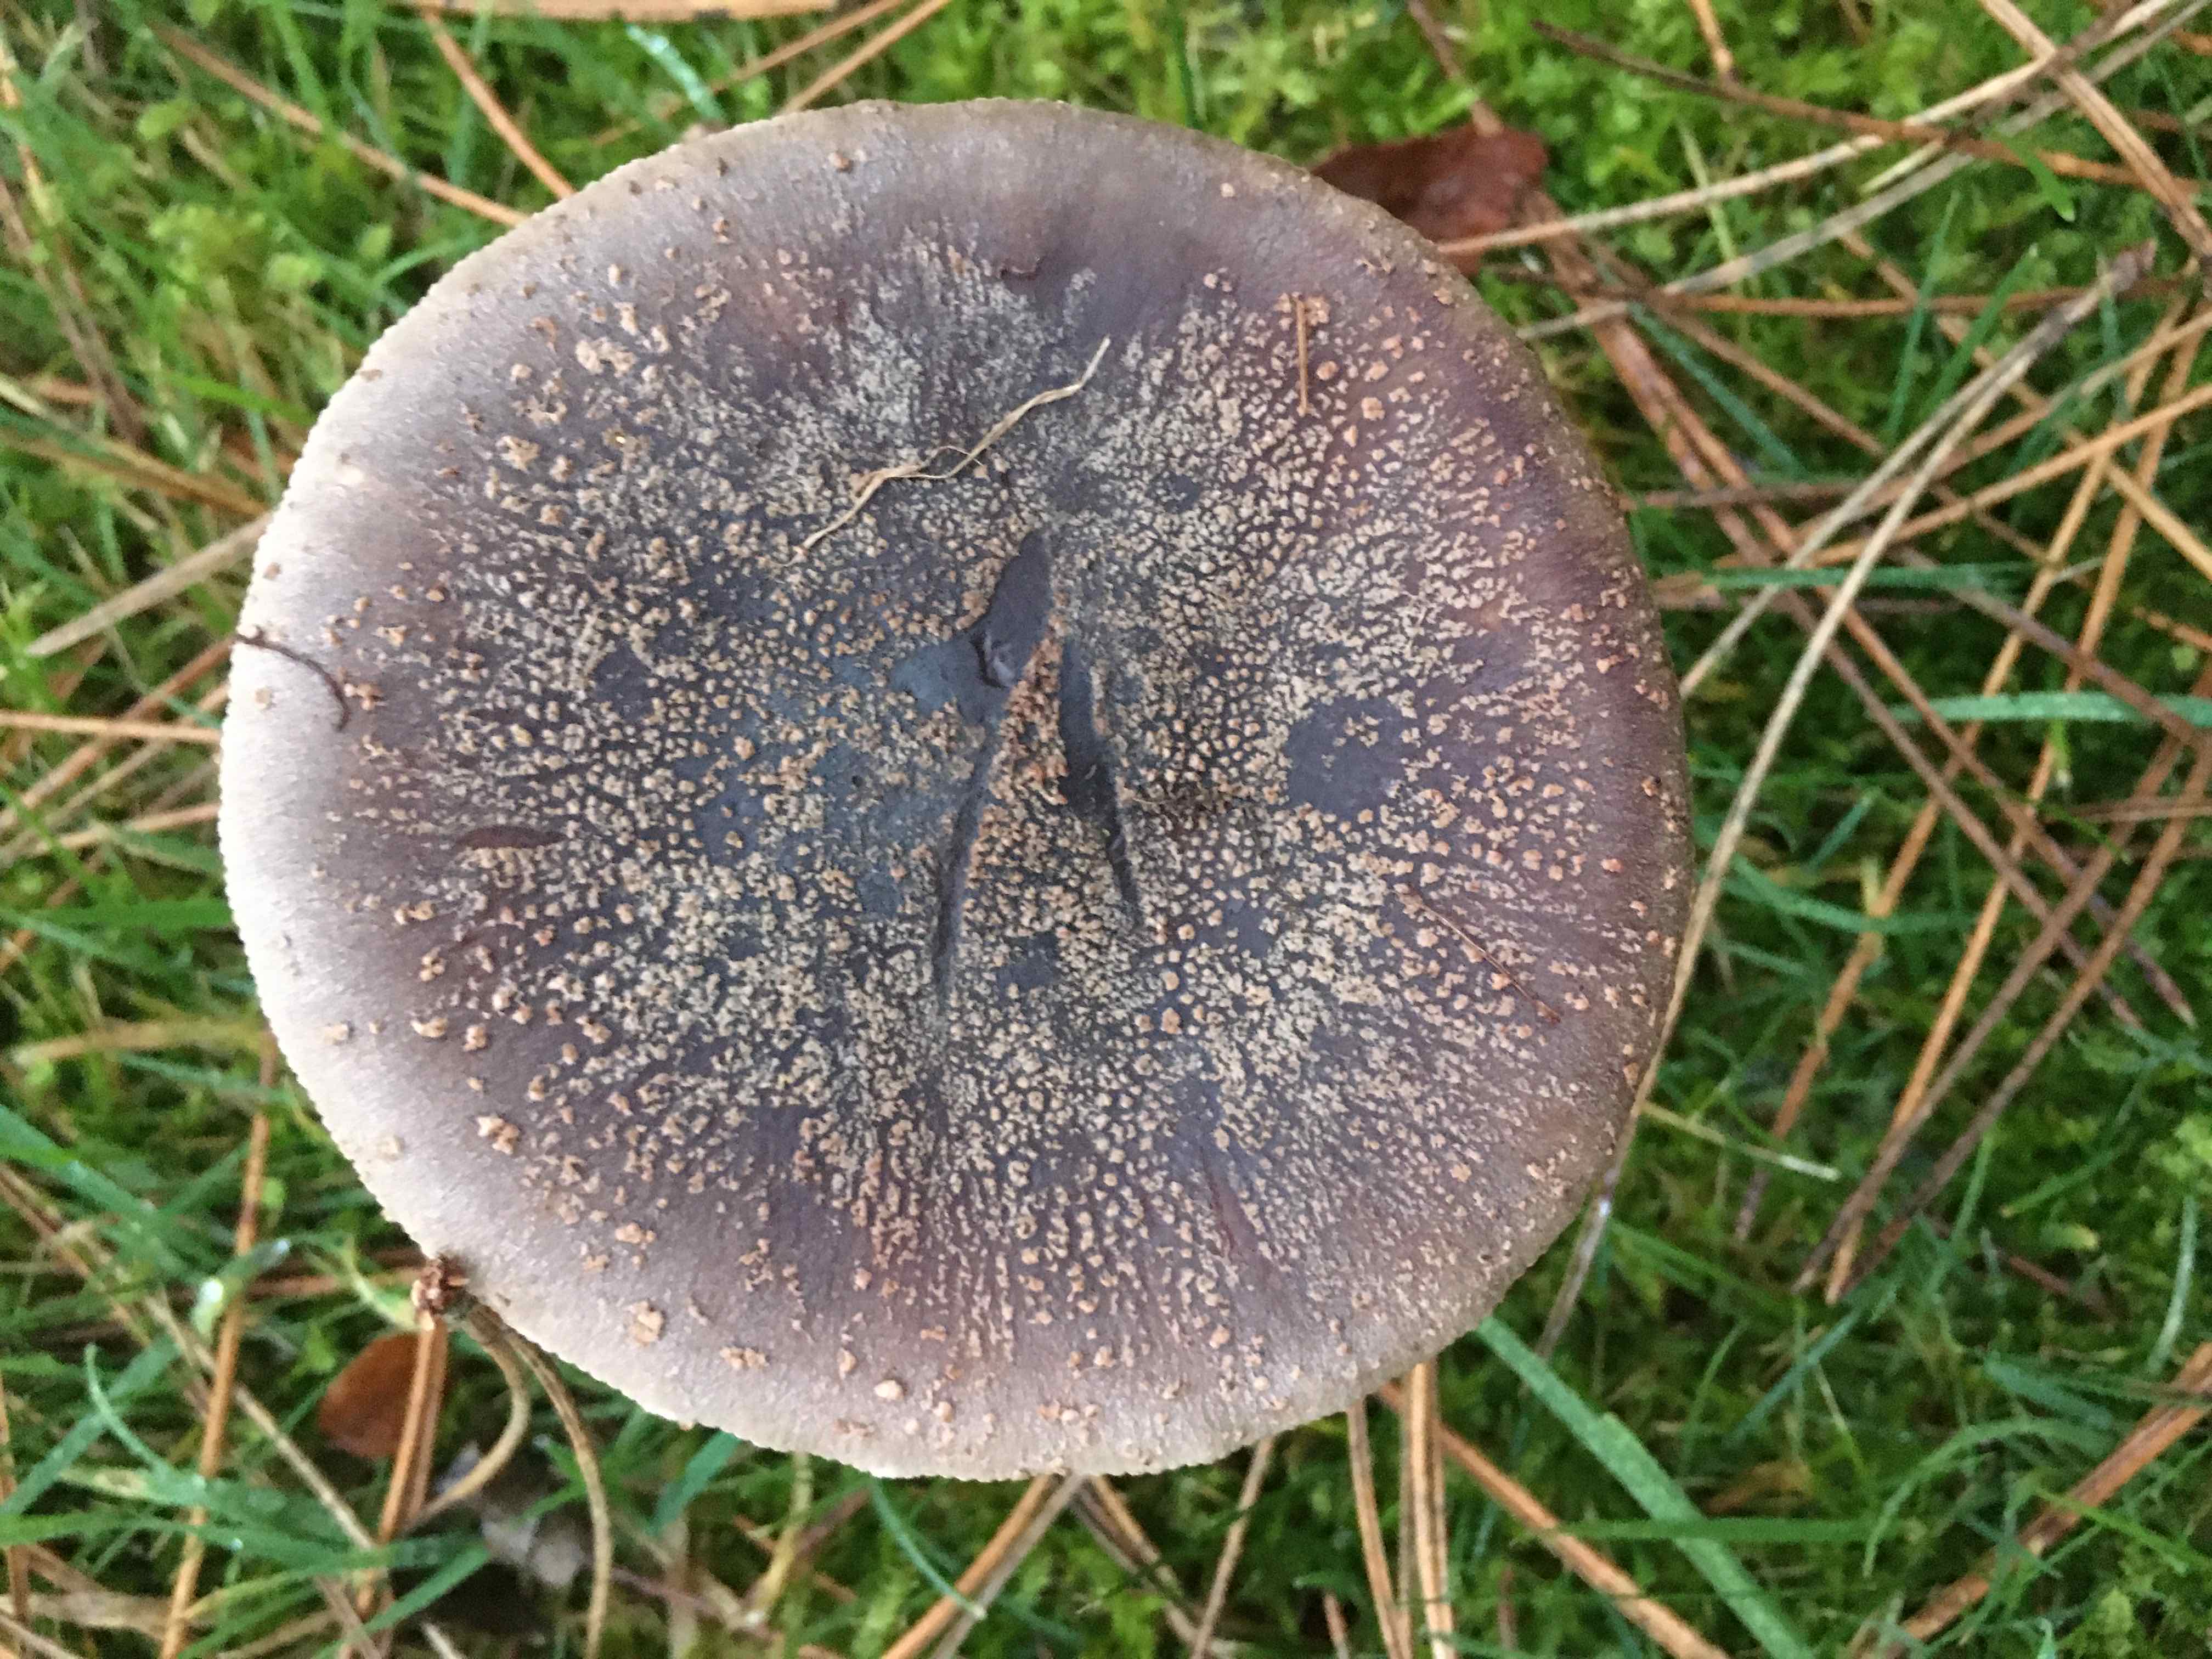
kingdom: Fungi
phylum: Basidiomycota
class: Agaricomycetes
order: Agaricales
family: Amanitaceae
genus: Amanita
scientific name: Amanita rubescens
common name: rødmende fluesvamp
